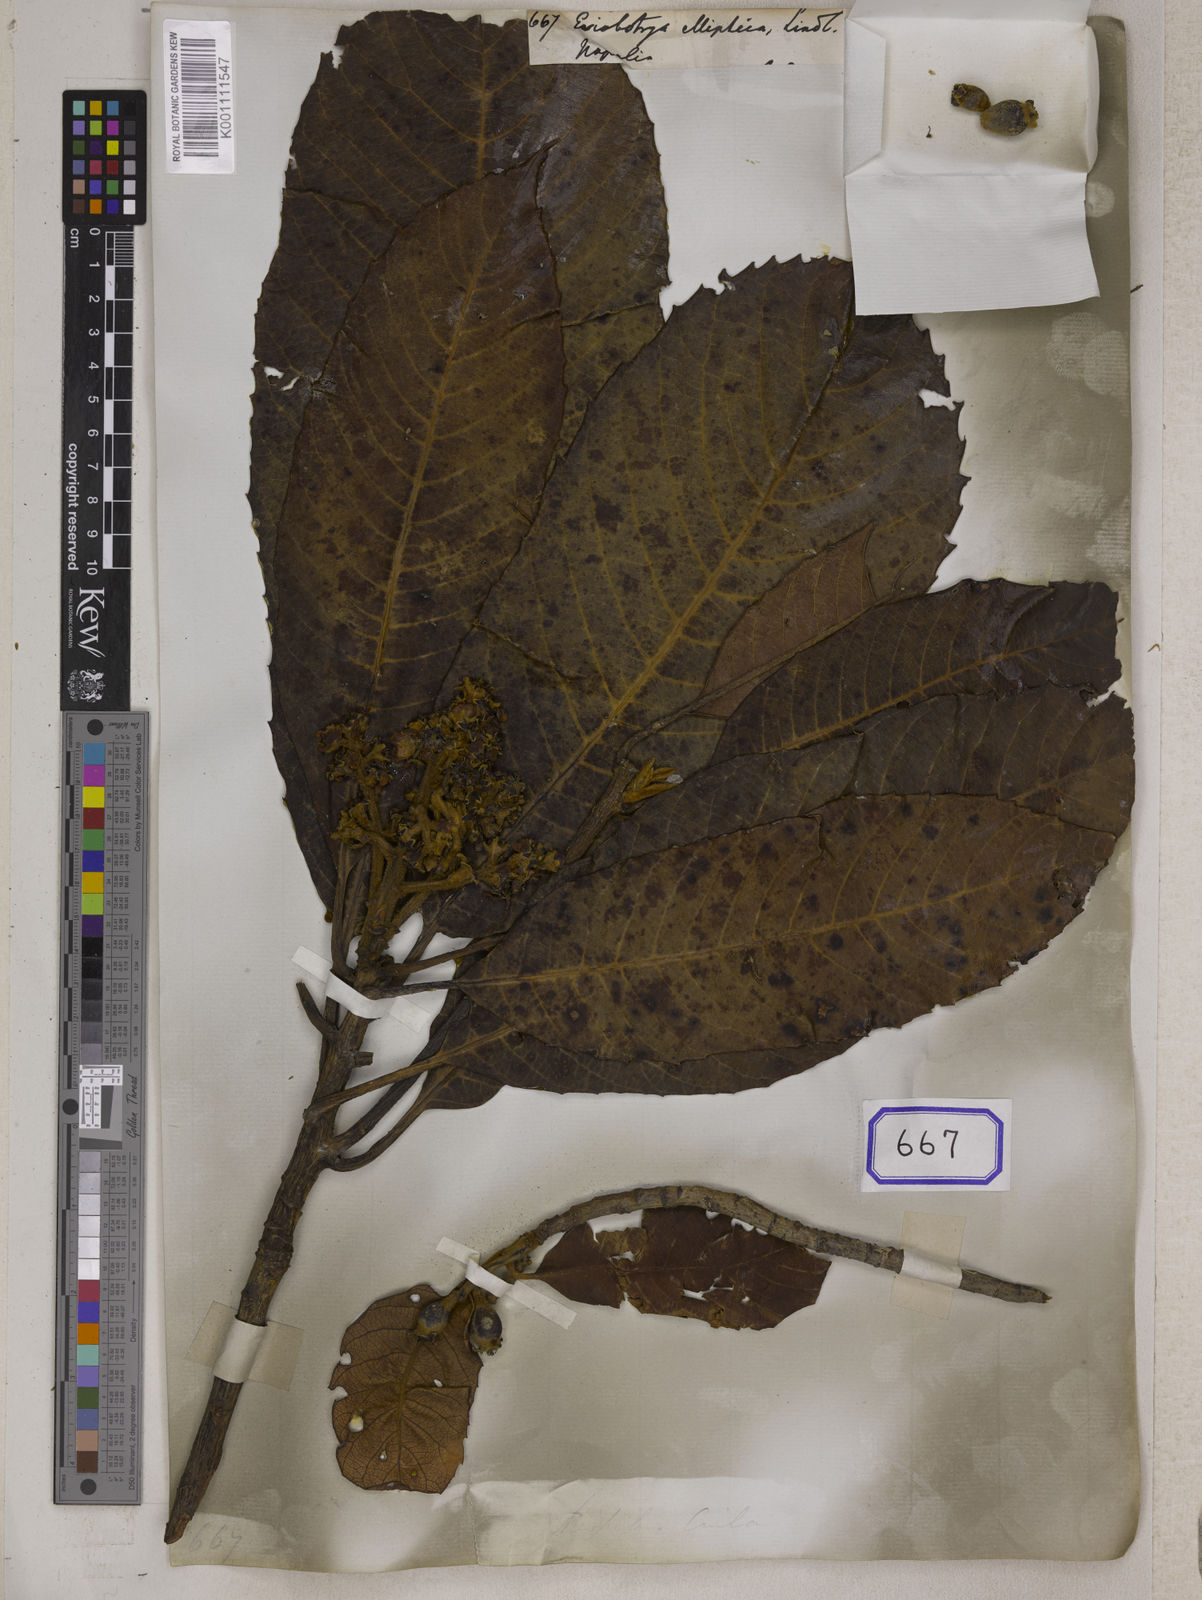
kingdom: Plantae
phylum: Tracheophyta
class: Magnoliopsida
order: Rosales
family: Rosaceae
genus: Rhaphiolepis
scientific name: Rhaphiolepis elliptica
